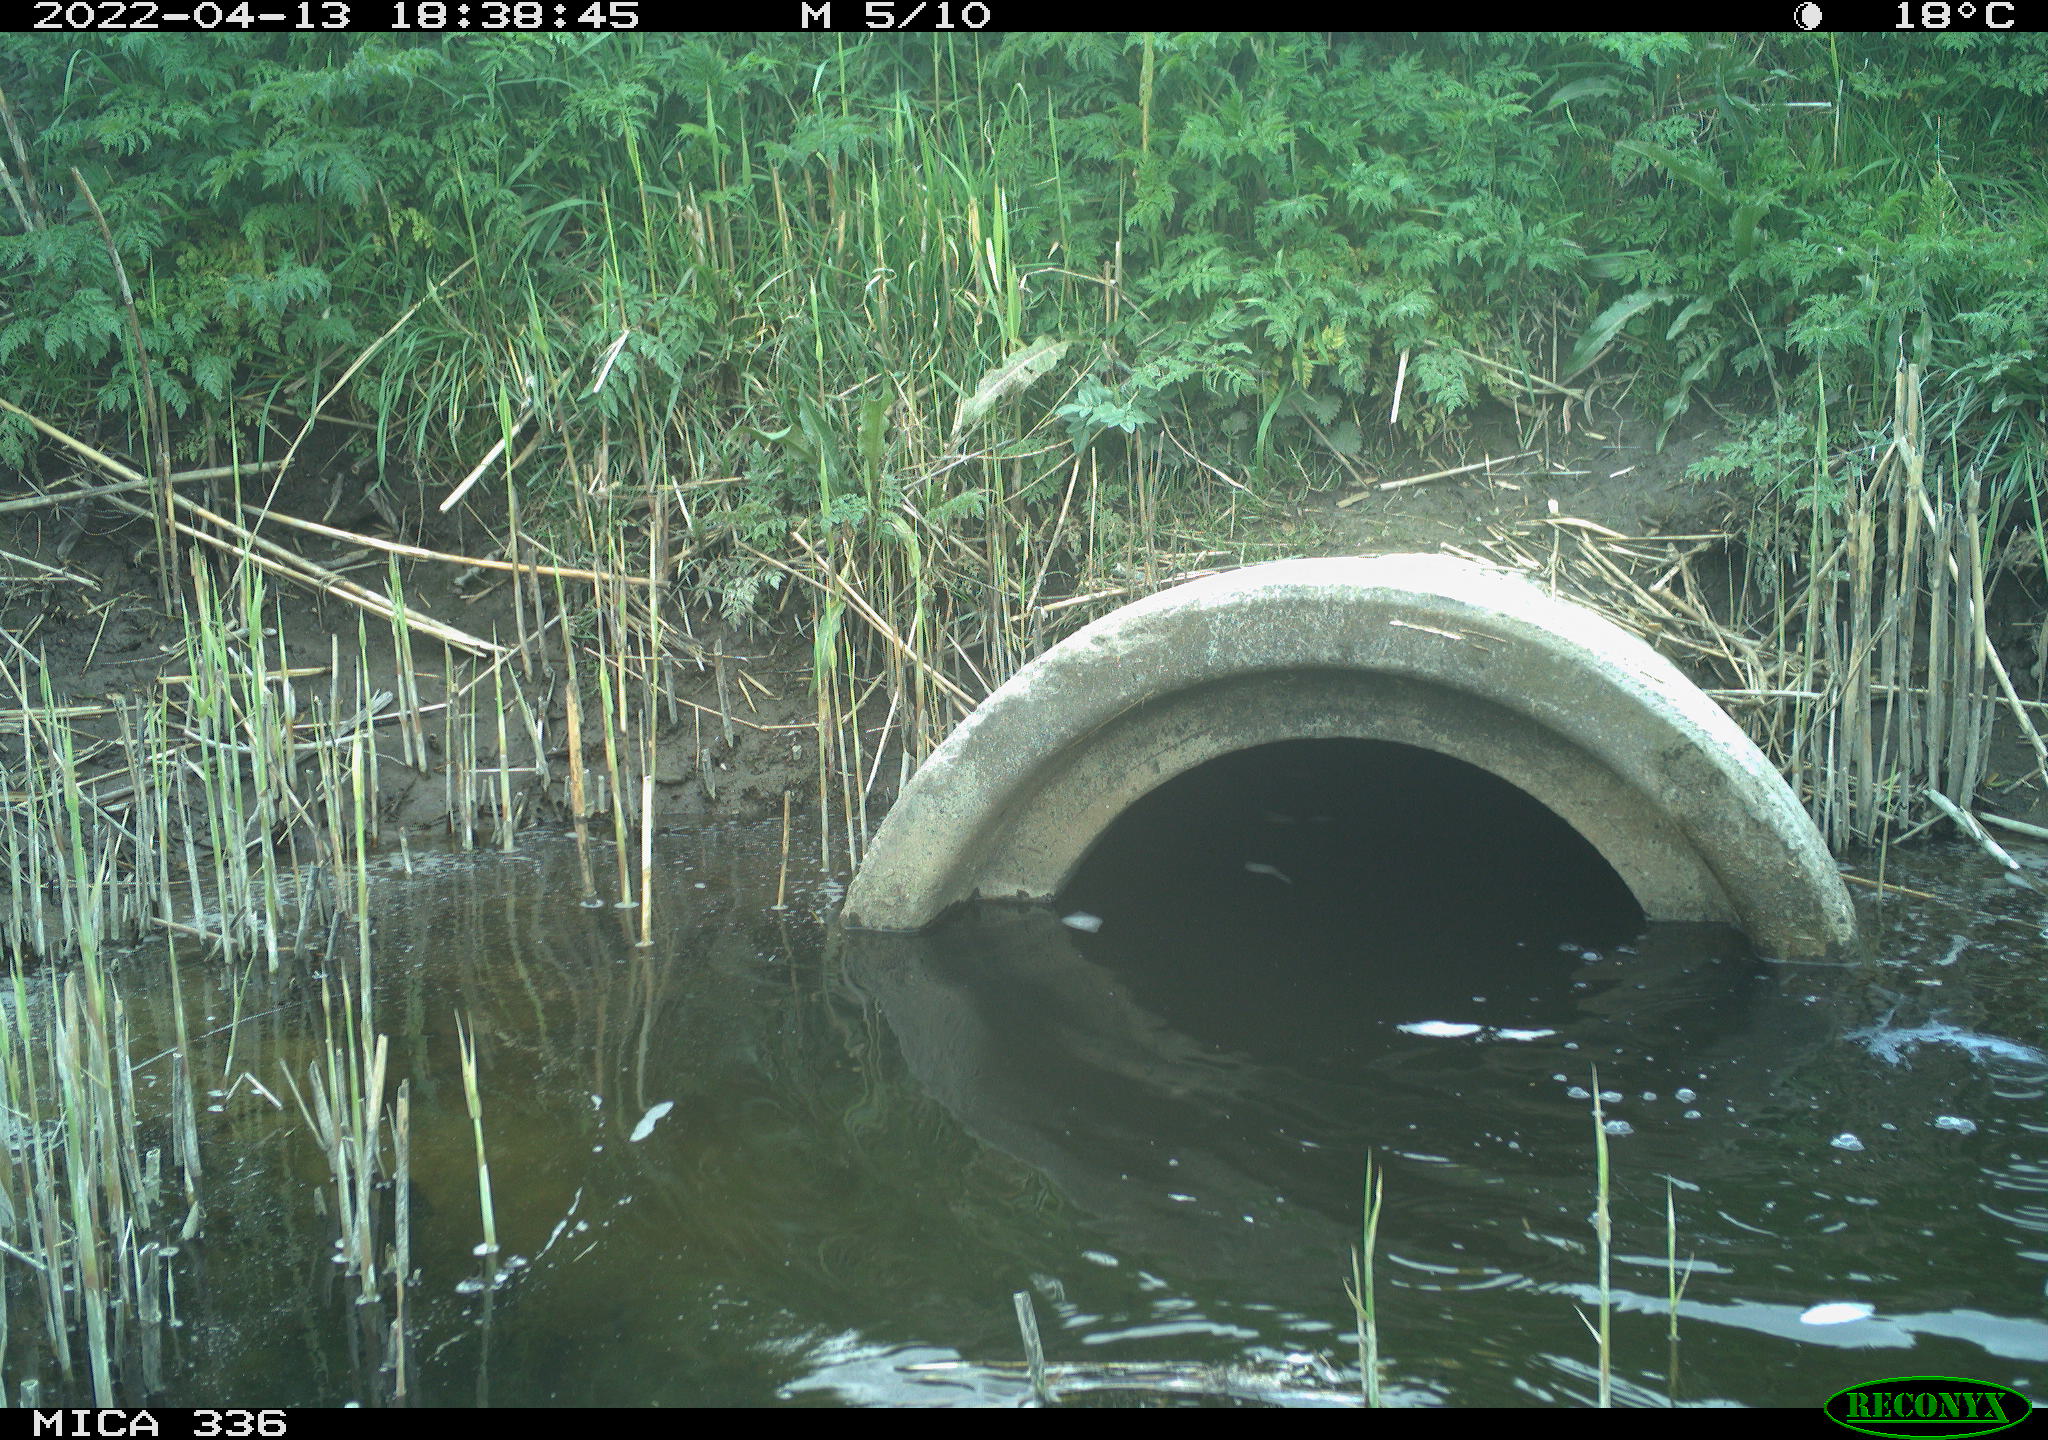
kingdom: Animalia
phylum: Chordata
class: Aves
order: Pelecaniformes
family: Ardeidae
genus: Ardea
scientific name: Ardea cinerea
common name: Grey heron
